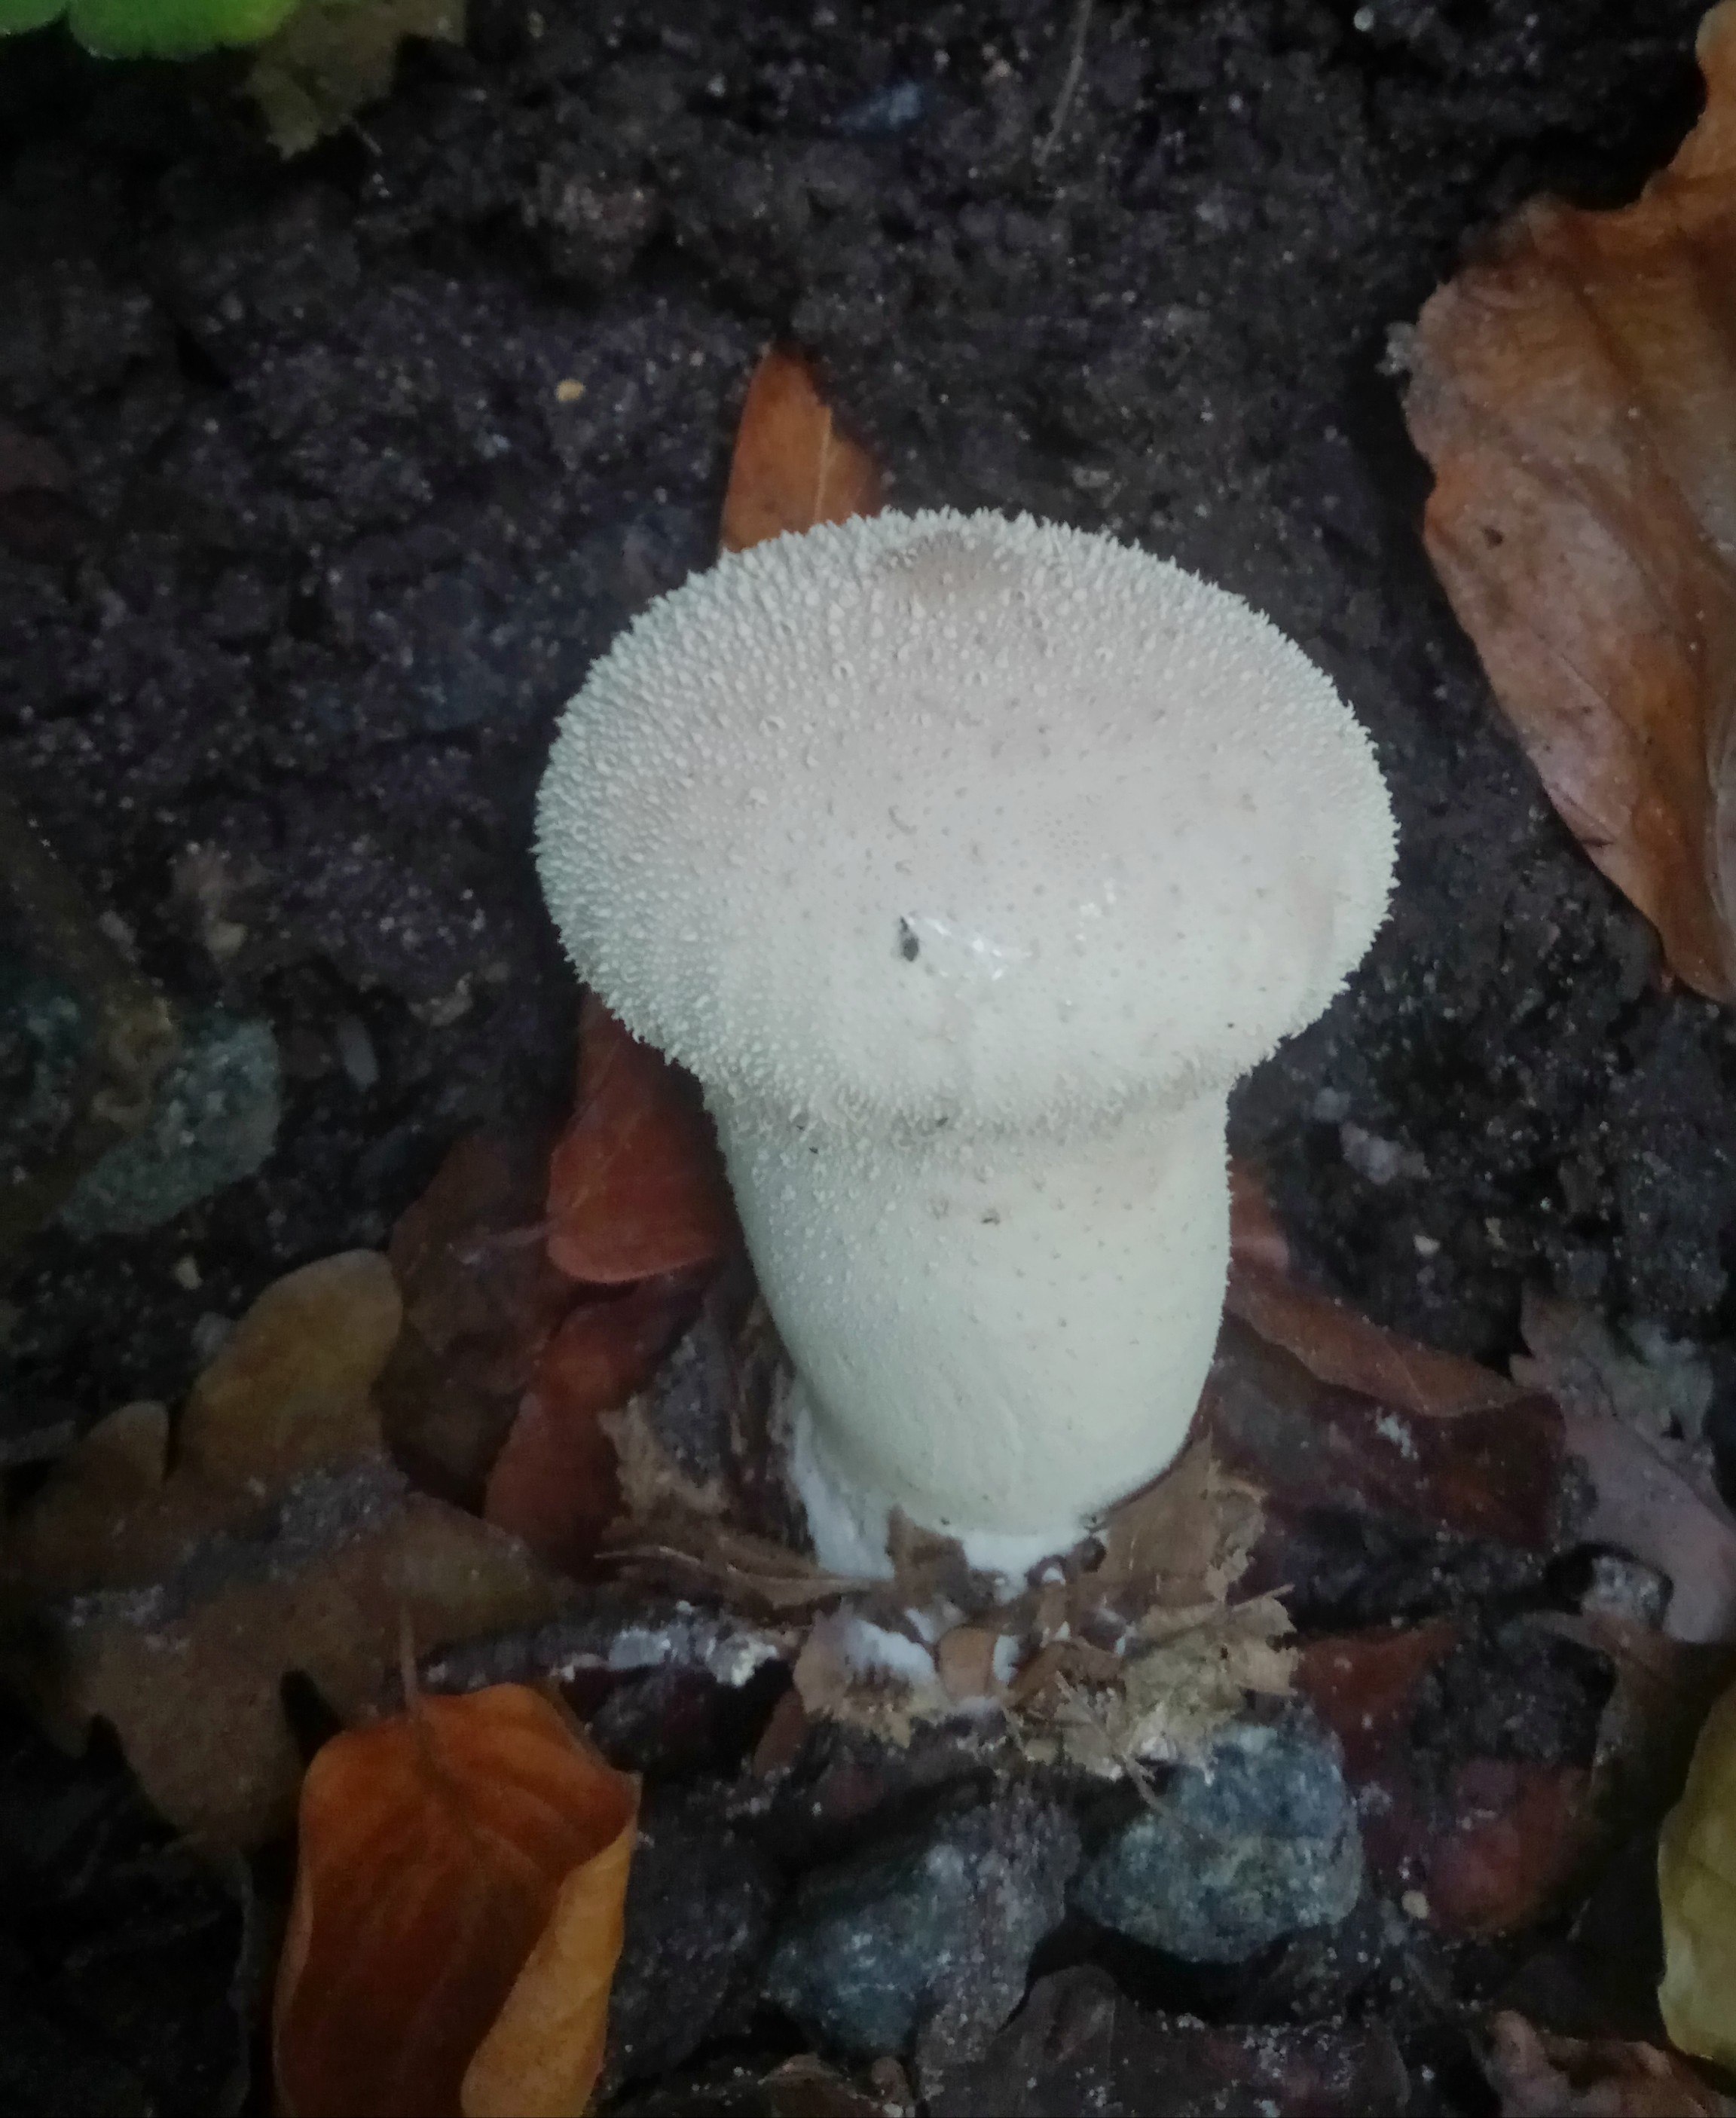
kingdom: Fungi
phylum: Basidiomycota
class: Agaricomycetes
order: Agaricales
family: Lycoperdaceae
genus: Lycoperdon
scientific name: Lycoperdon perlatum
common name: krystal-støvbold
